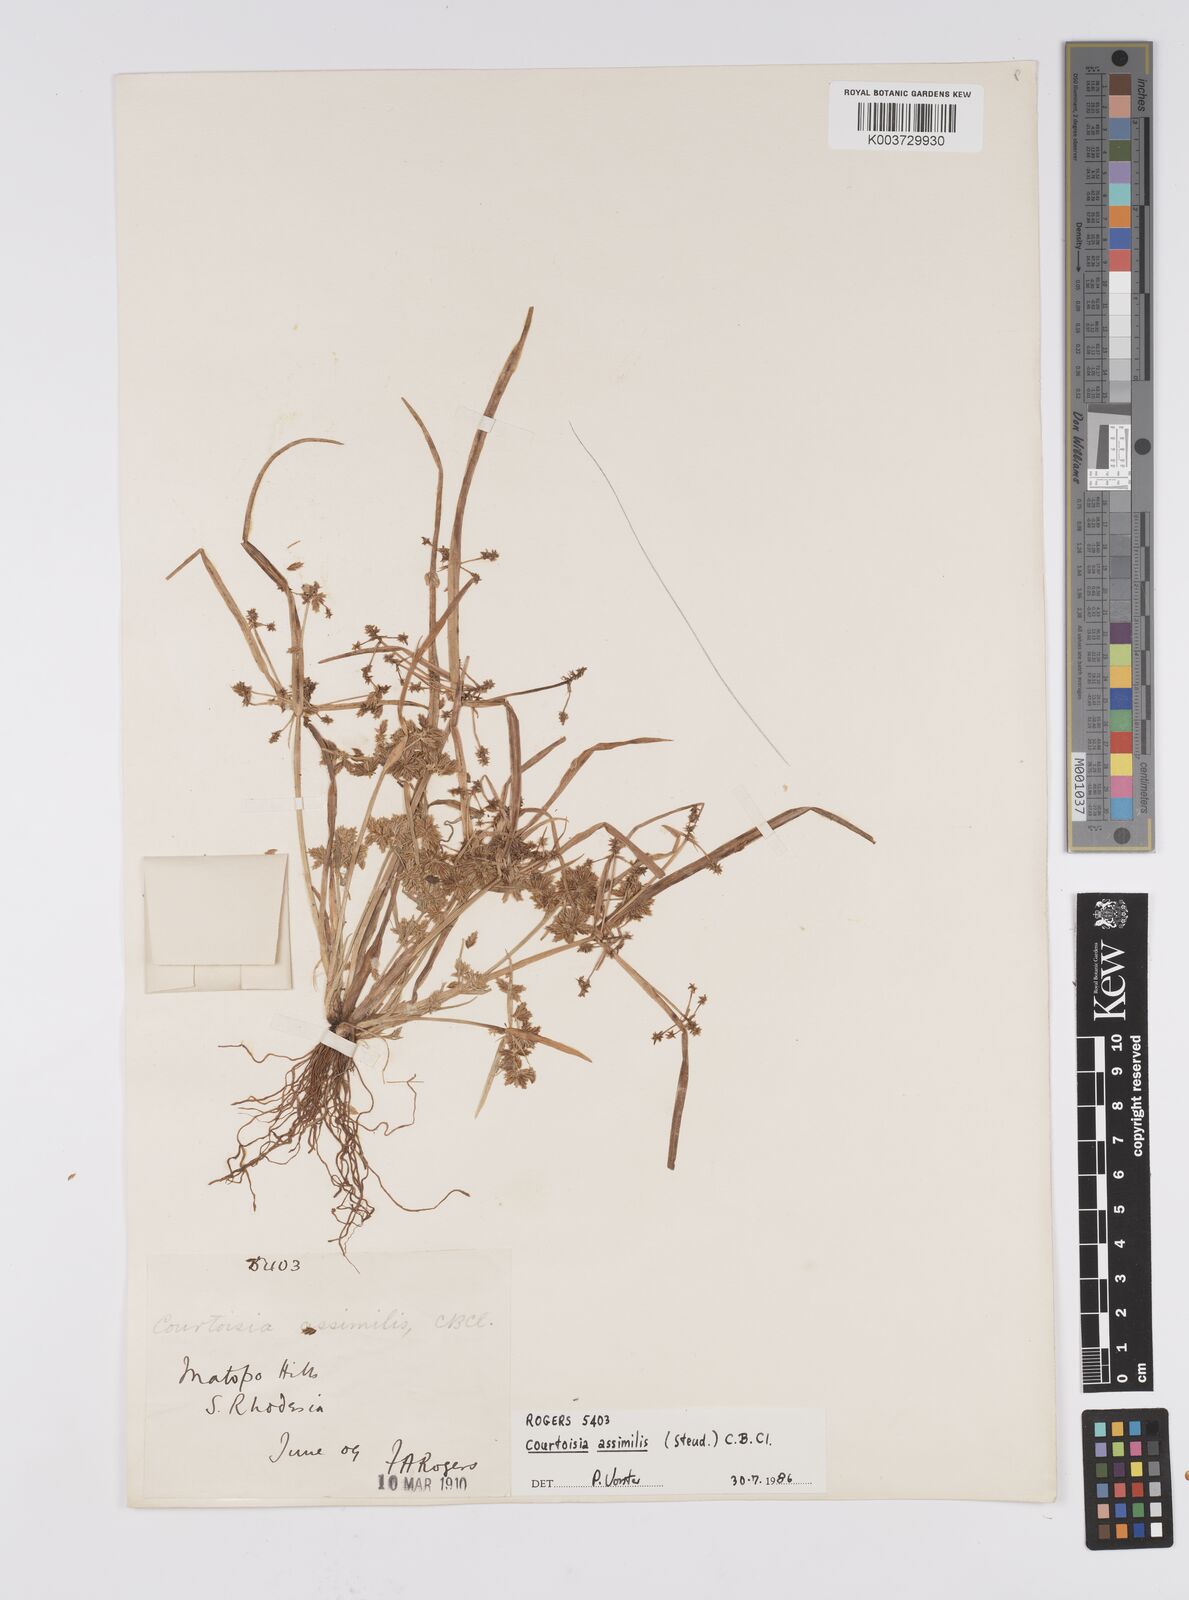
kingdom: Plantae
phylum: Tracheophyta
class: Liliopsida
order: Poales
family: Cyperaceae
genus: Cyperus
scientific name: Cyperus assimilis
